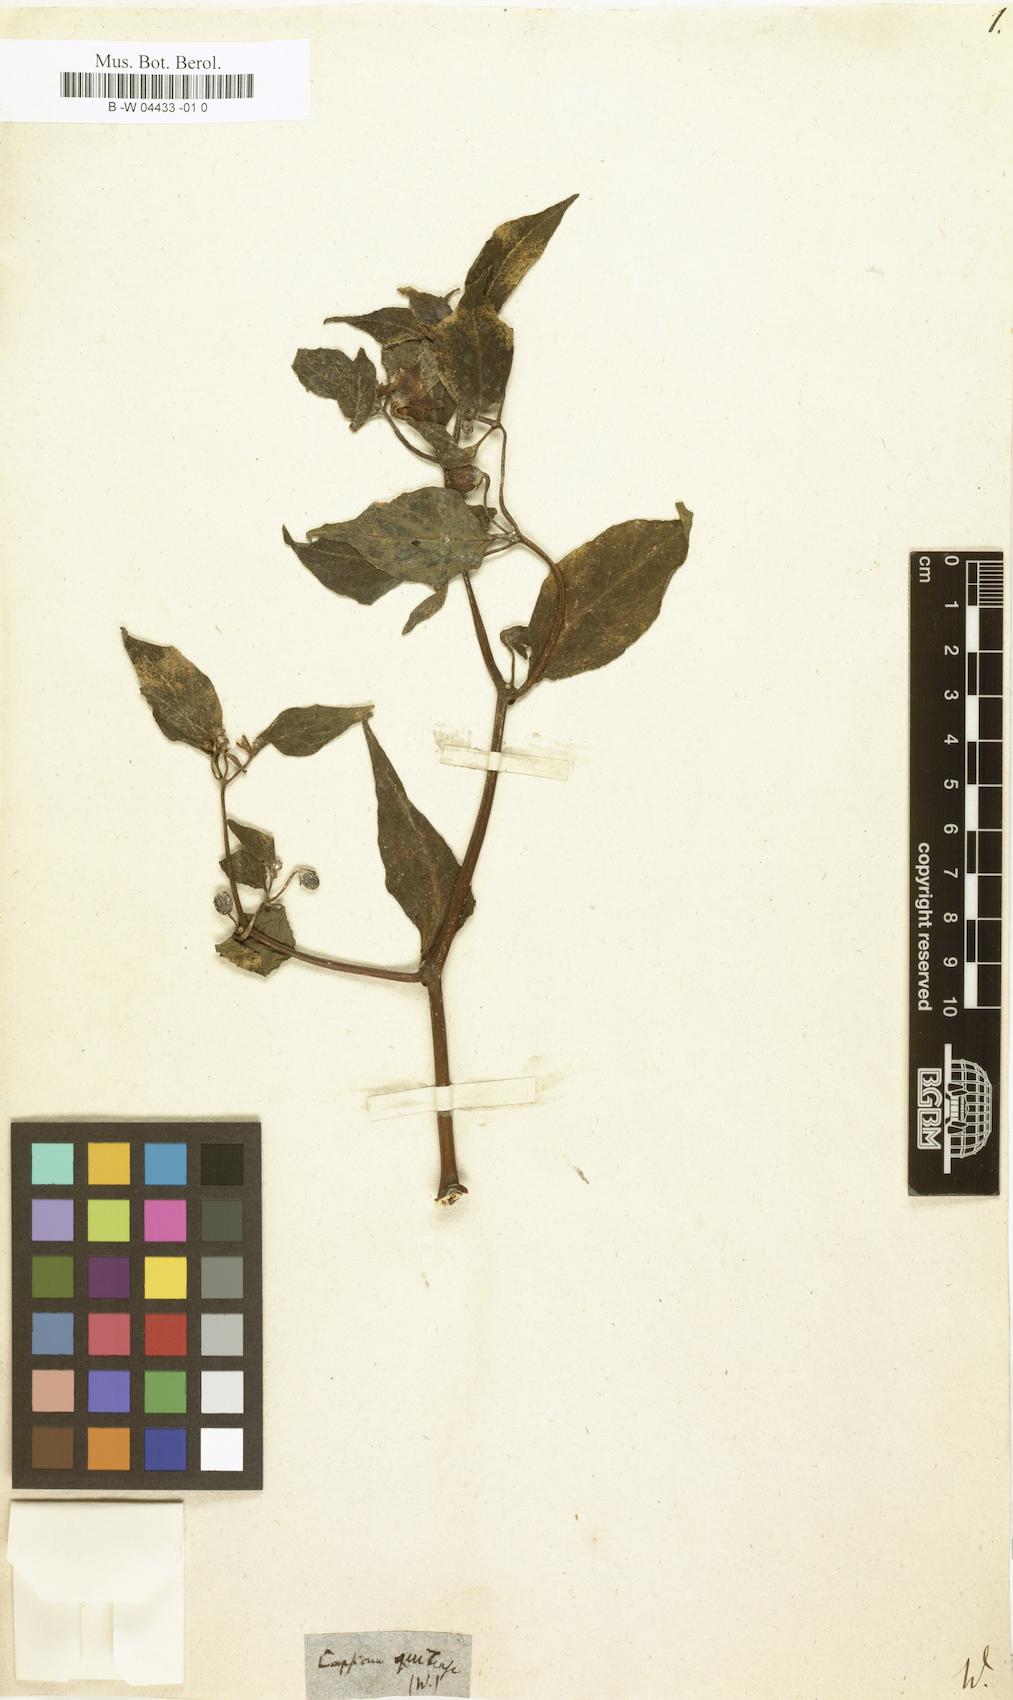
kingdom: Plantae
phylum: Tracheophyta
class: Magnoliopsida
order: Solanales
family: Solanaceae
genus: Capsicum
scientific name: Capsicum pubescens
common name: Apple chile
